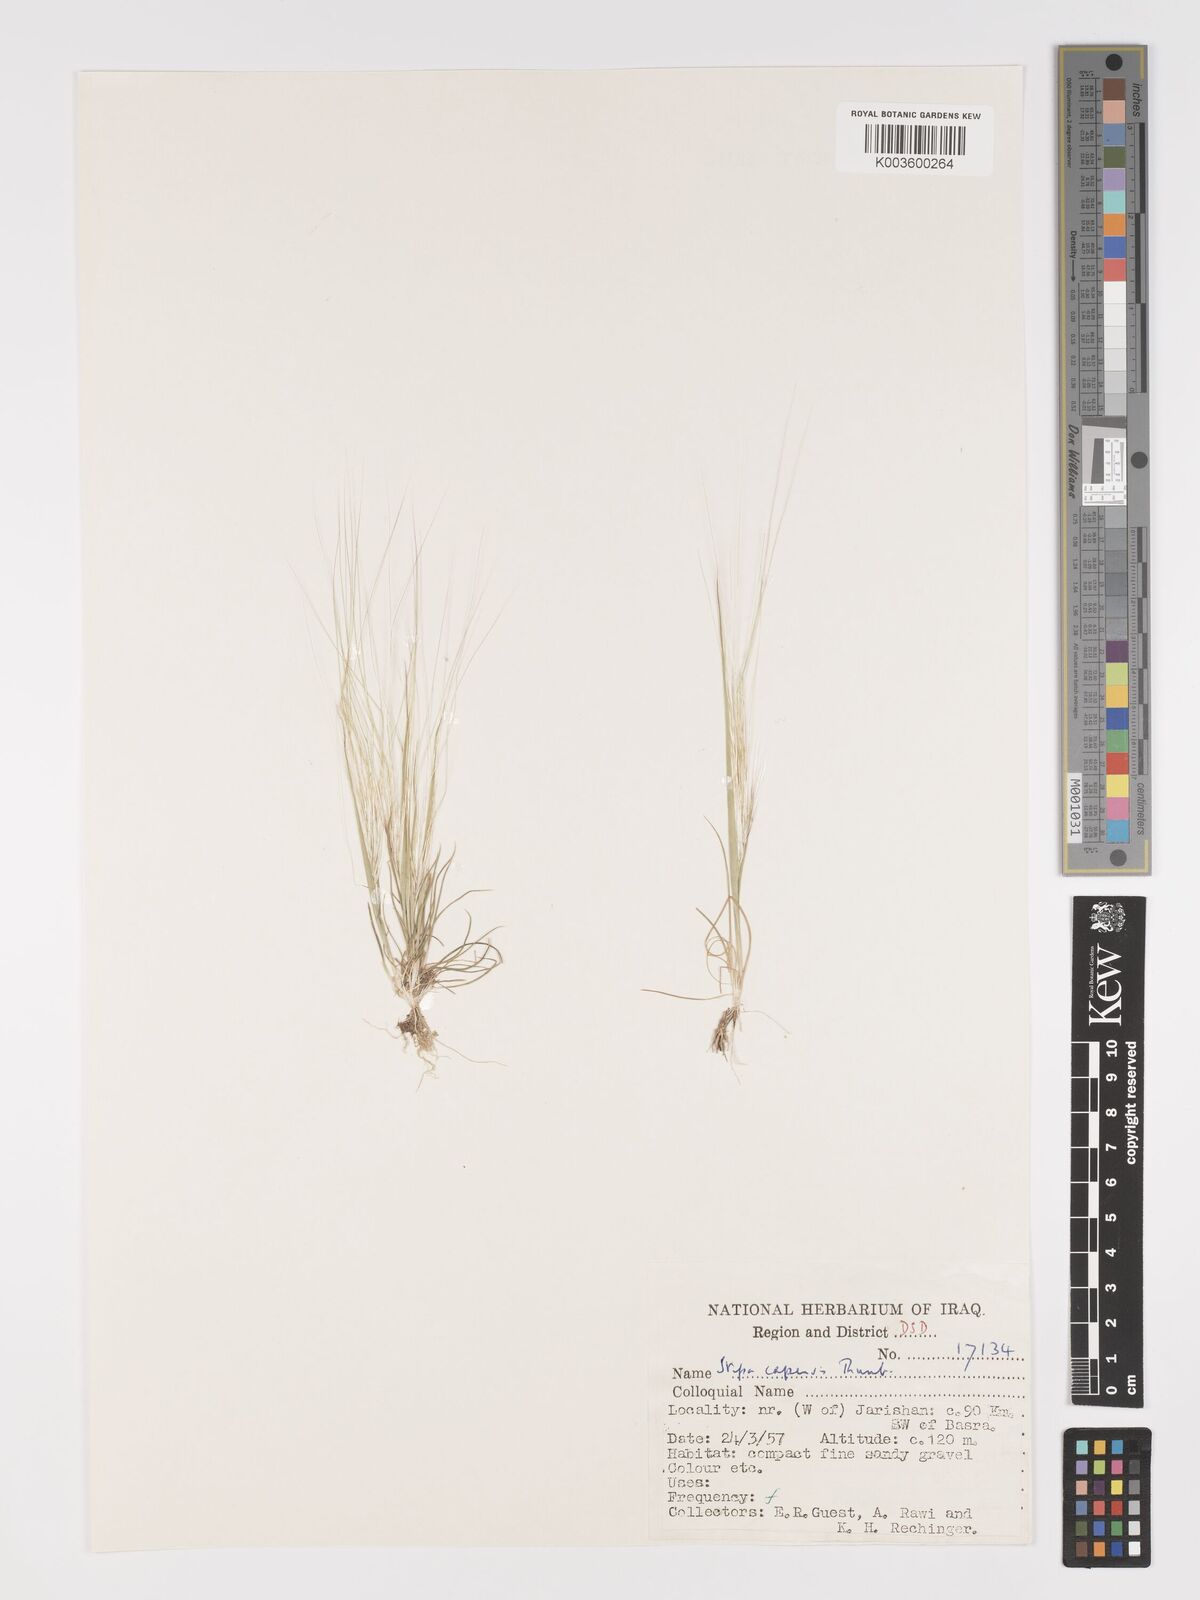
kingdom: Plantae
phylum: Tracheophyta
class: Liliopsida
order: Poales
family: Poaceae
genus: Stipellula
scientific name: Stipellula capensis
